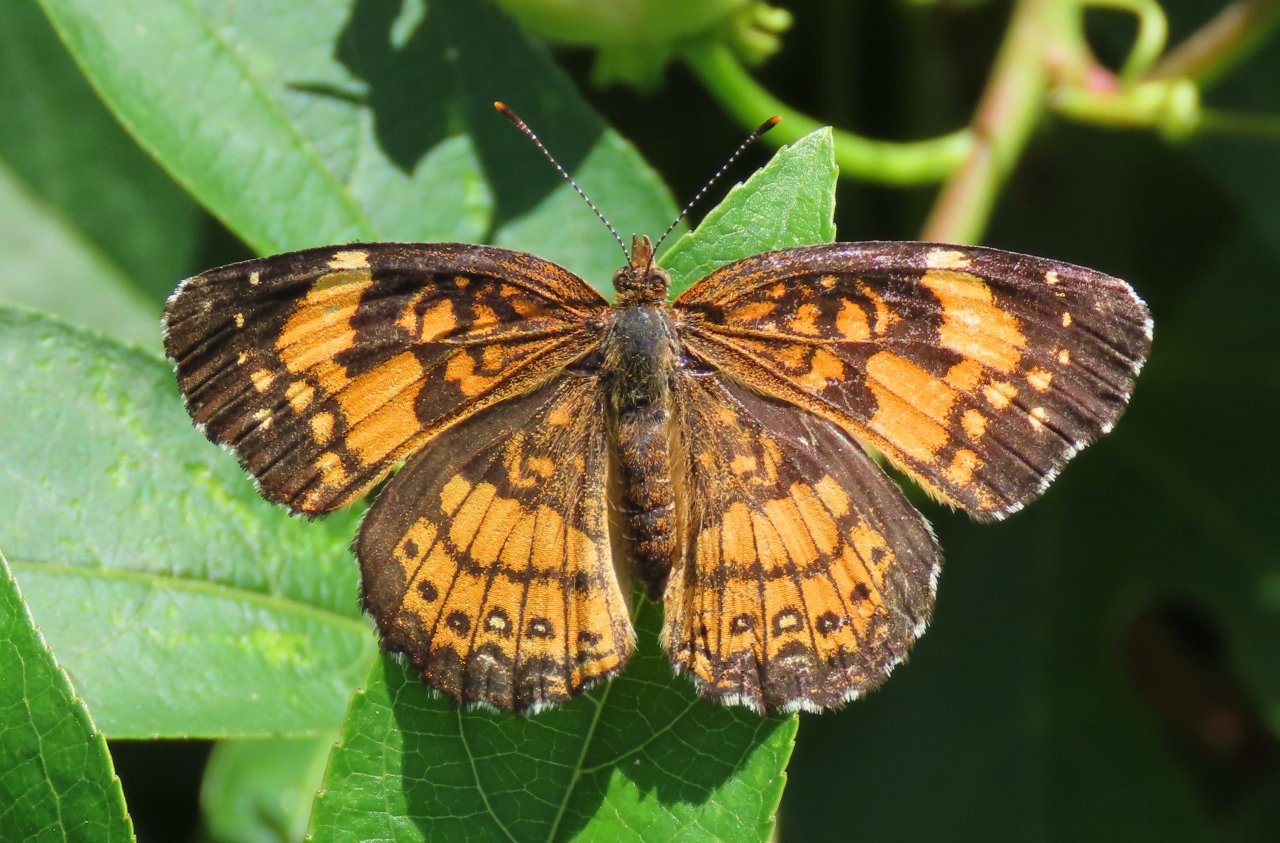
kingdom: Animalia
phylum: Arthropoda
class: Insecta
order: Lepidoptera
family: Nymphalidae
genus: Chlosyne
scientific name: Chlosyne nycteis
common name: Silvery Checkerspot
